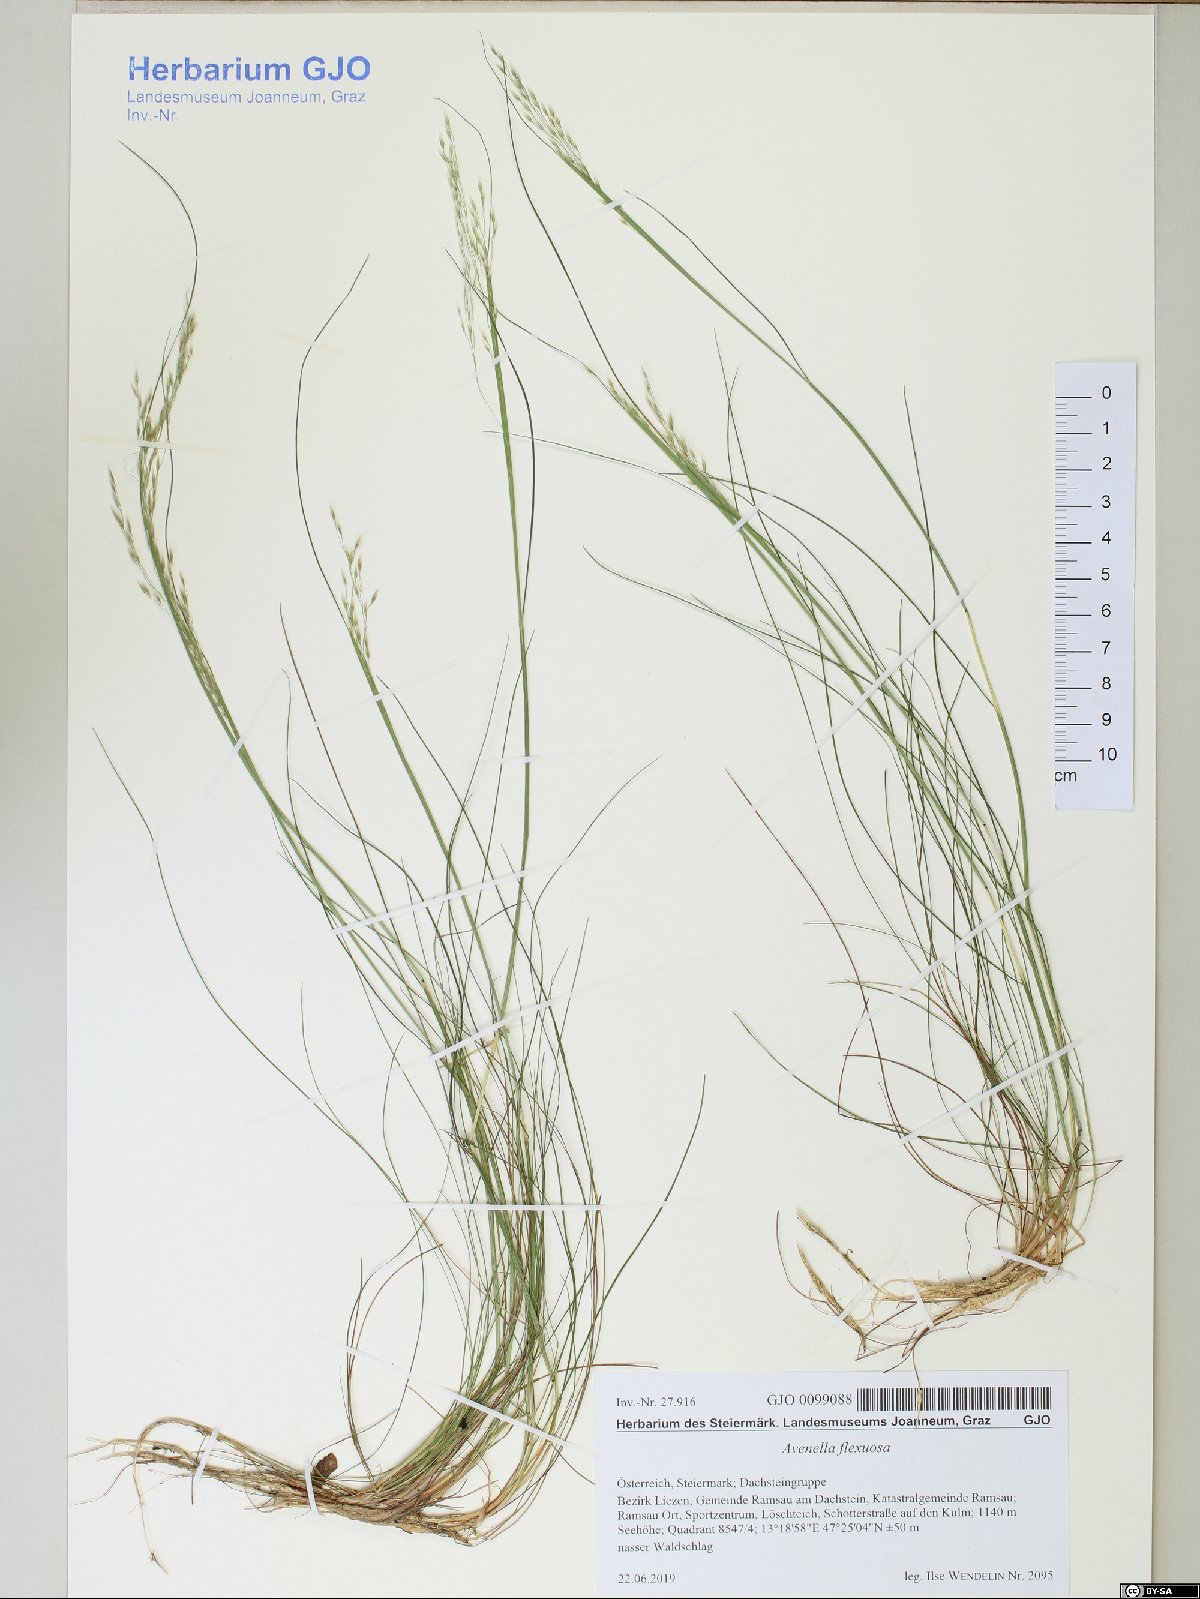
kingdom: Plantae
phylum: Tracheophyta
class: Liliopsida
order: Poales
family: Poaceae
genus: Avenella
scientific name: Avenella flexuosa
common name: Wavy hairgrass
